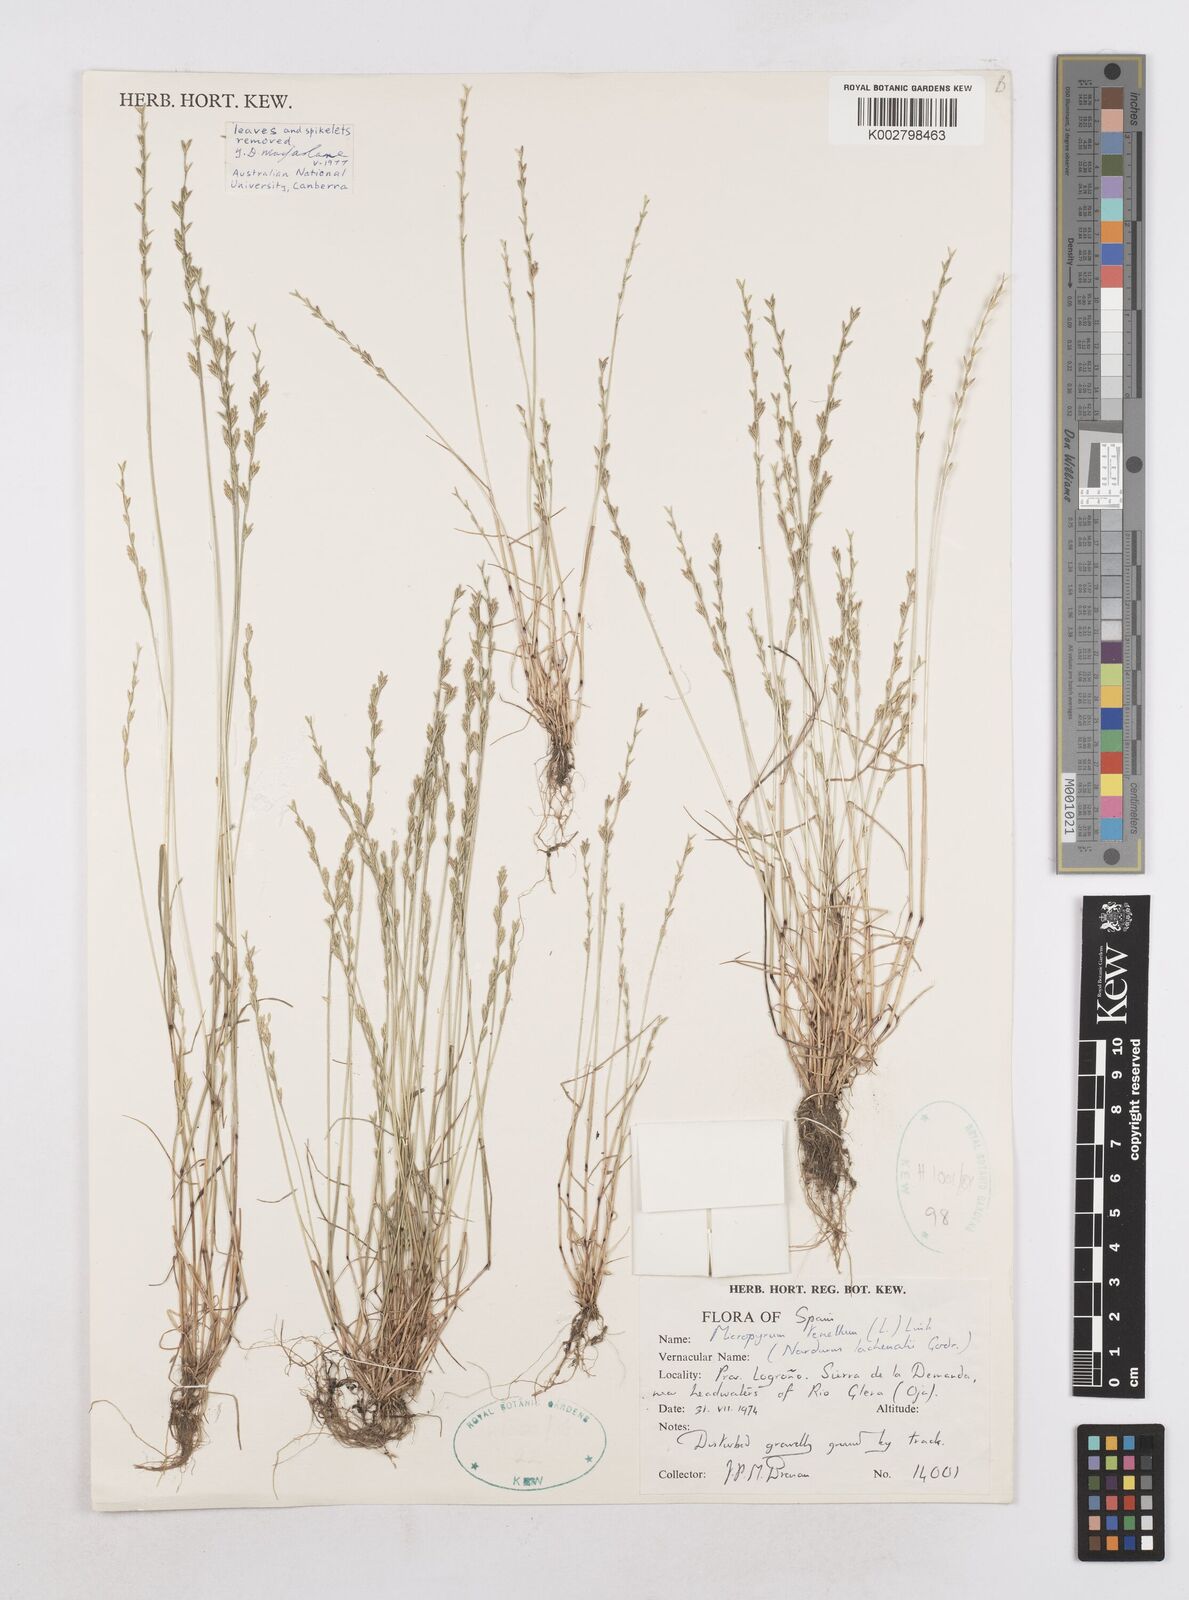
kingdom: Plantae
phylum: Tracheophyta
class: Liliopsida
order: Poales
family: Poaceae
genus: Festuca
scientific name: Festuca lachenalii
